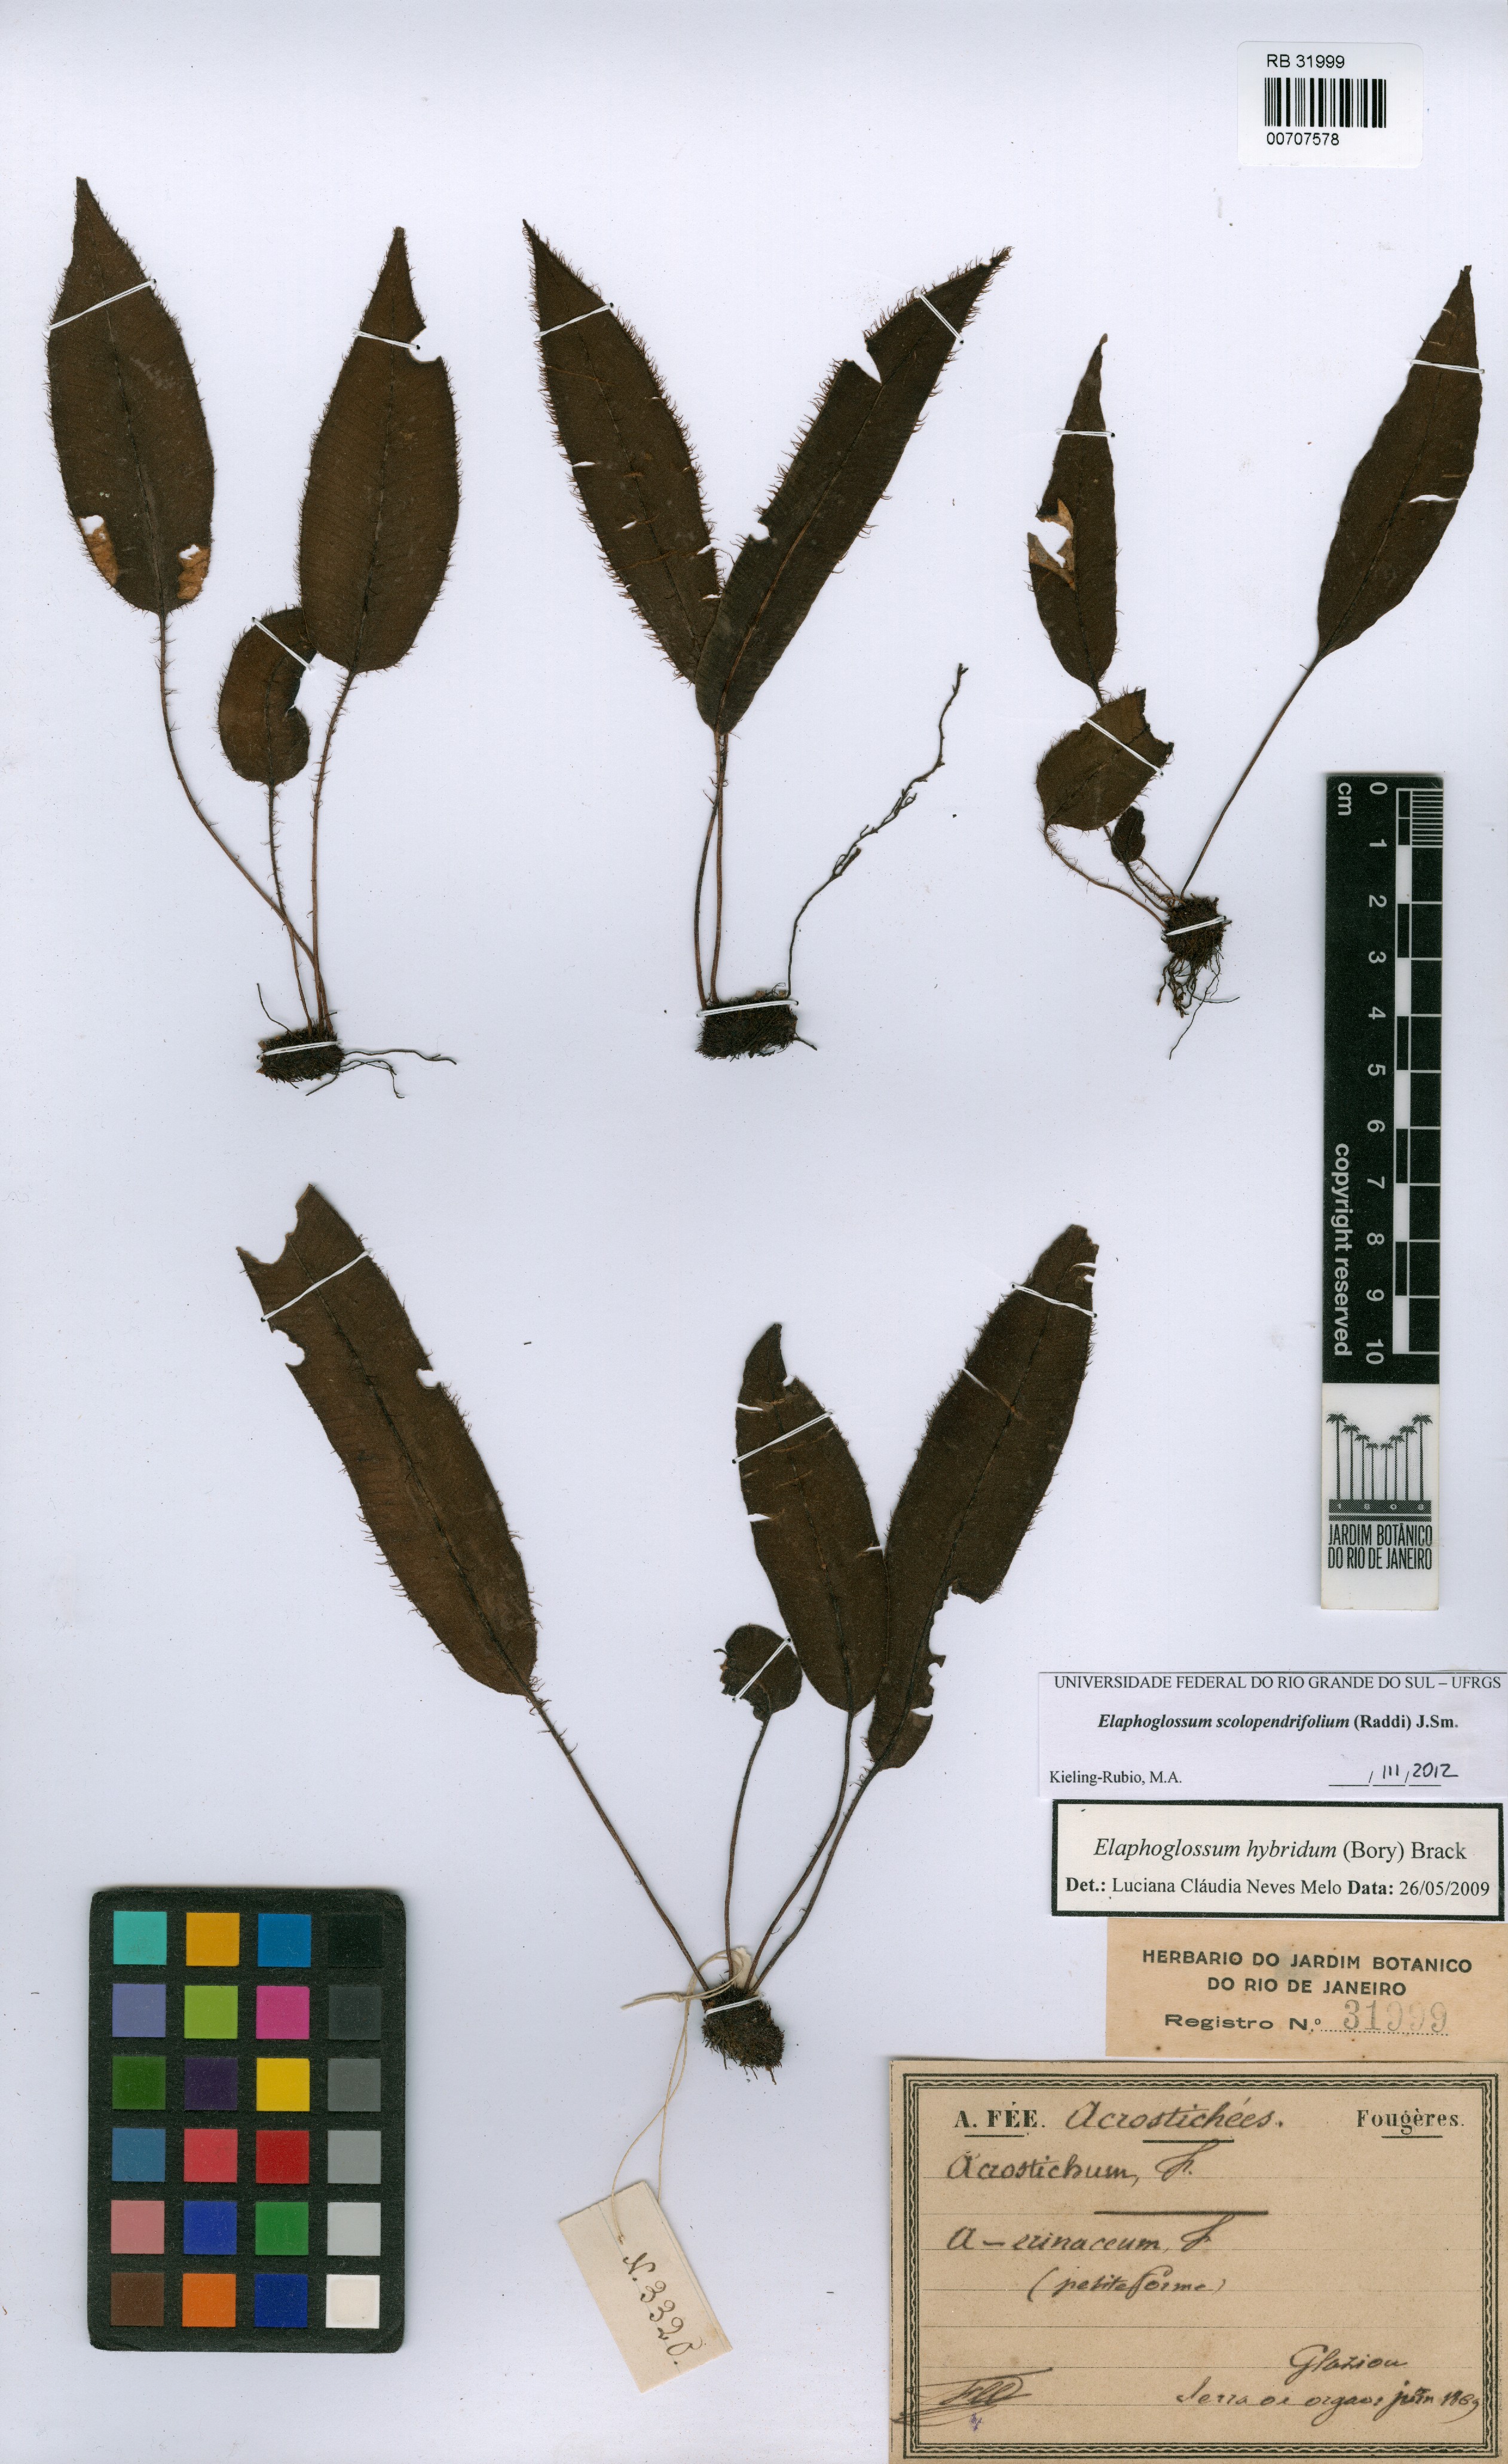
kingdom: Plantae
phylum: Tracheophyta
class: Polypodiopsida
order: Polypodiales
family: Dryopteridaceae
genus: Elaphoglossum
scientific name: Elaphoglossum scolopendrifolium
